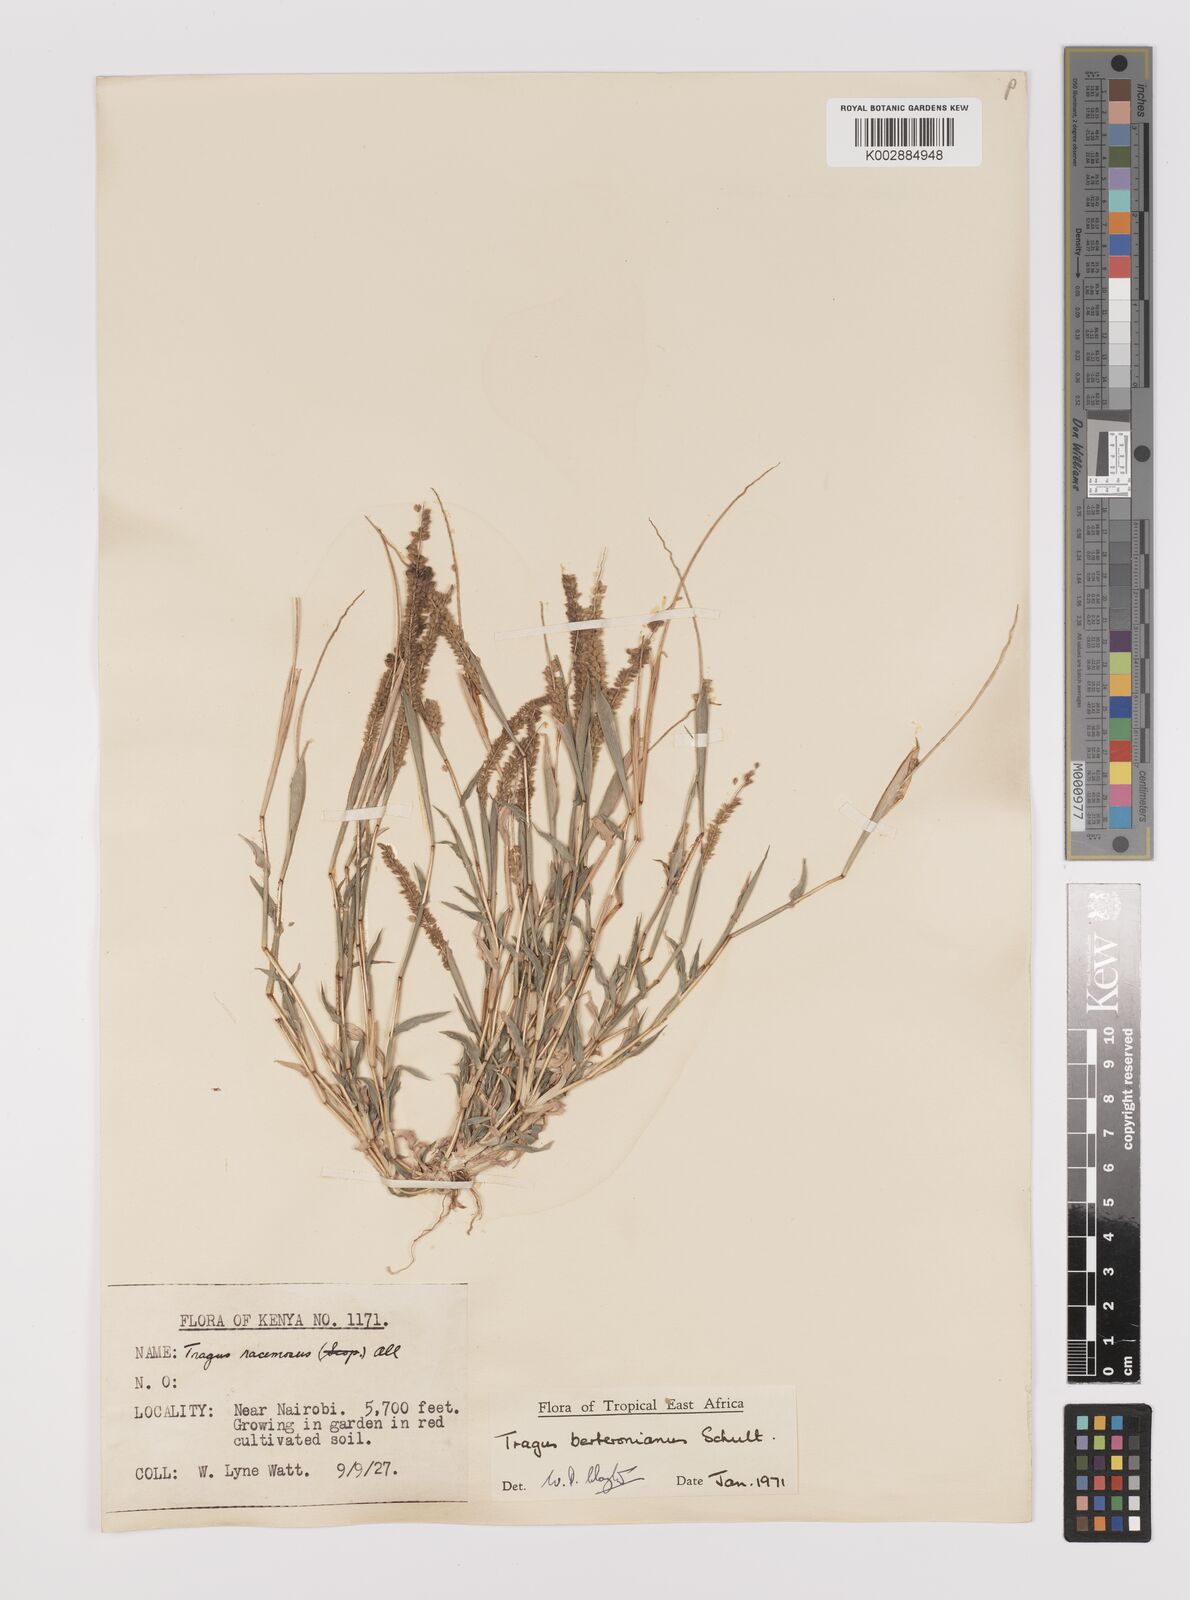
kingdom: Plantae
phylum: Tracheophyta
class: Liliopsida
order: Poales
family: Poaceae
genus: Tragus
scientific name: Tragus berteronianus
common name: African bur-grass
